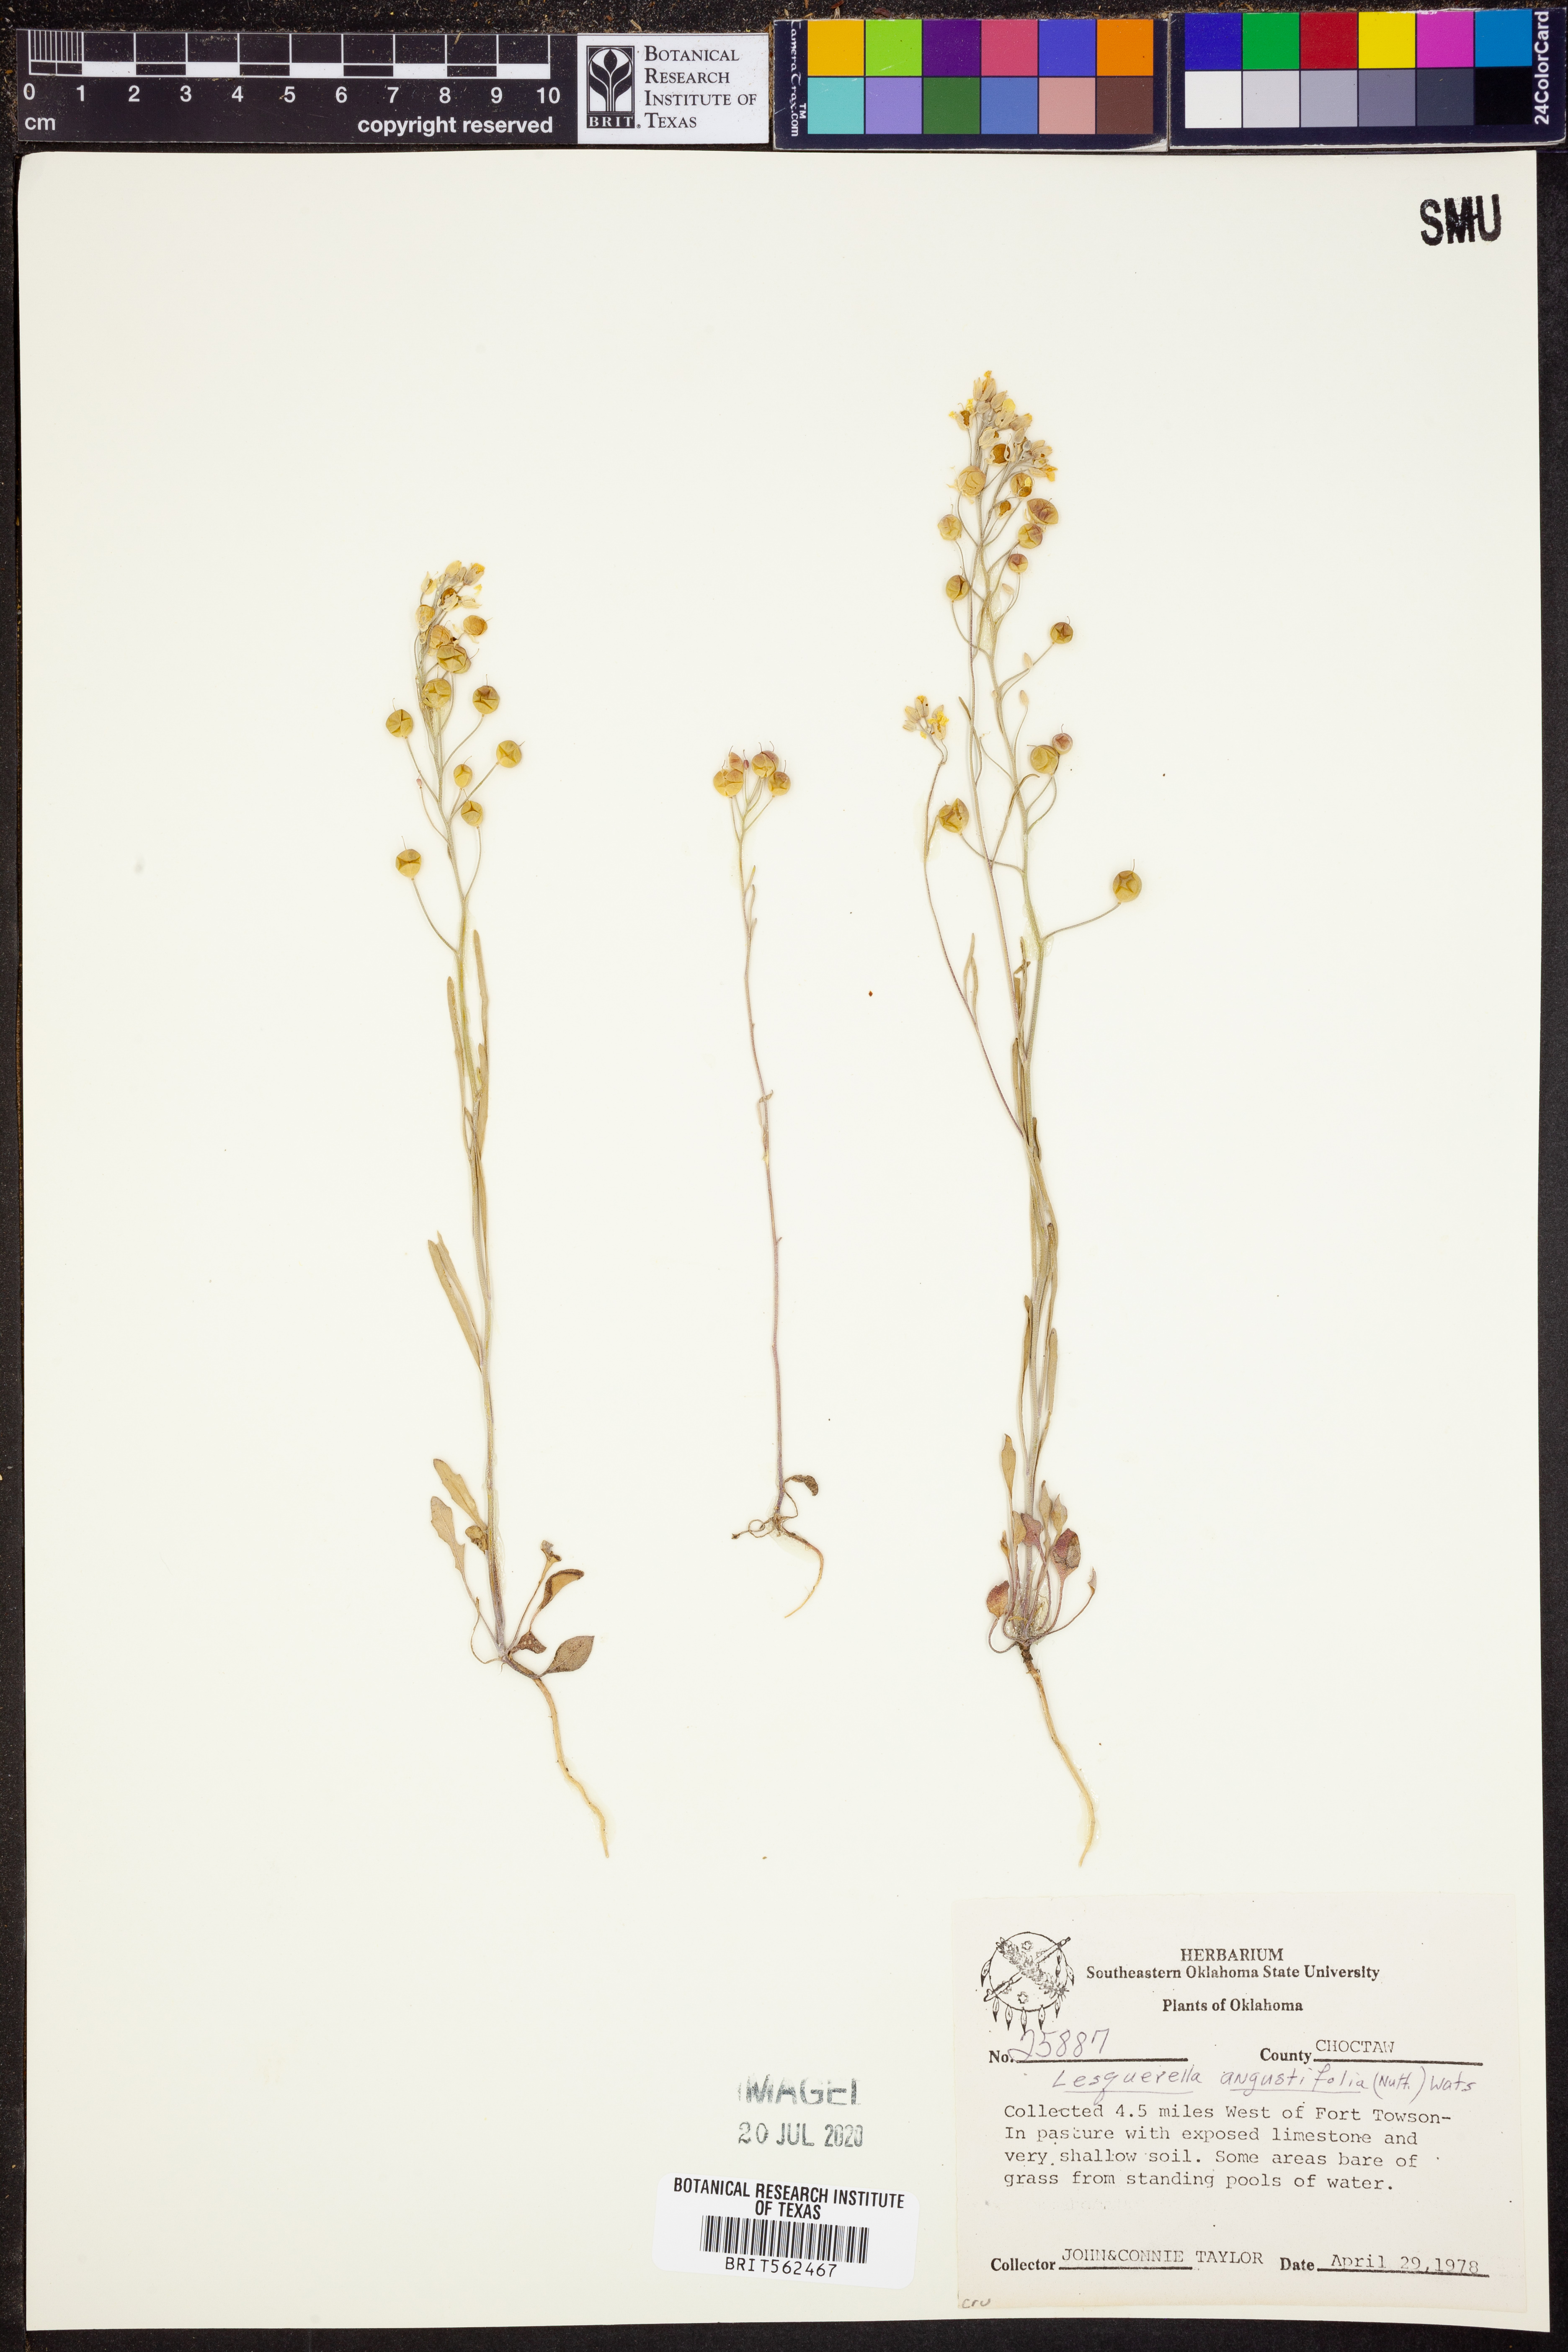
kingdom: Plantae
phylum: Tracheophyta
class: Magnoliopsida
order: Brassicales
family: Brassicaceae
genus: Physaria
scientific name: Physaria angustifolia
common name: Threadleaf bladderpod
